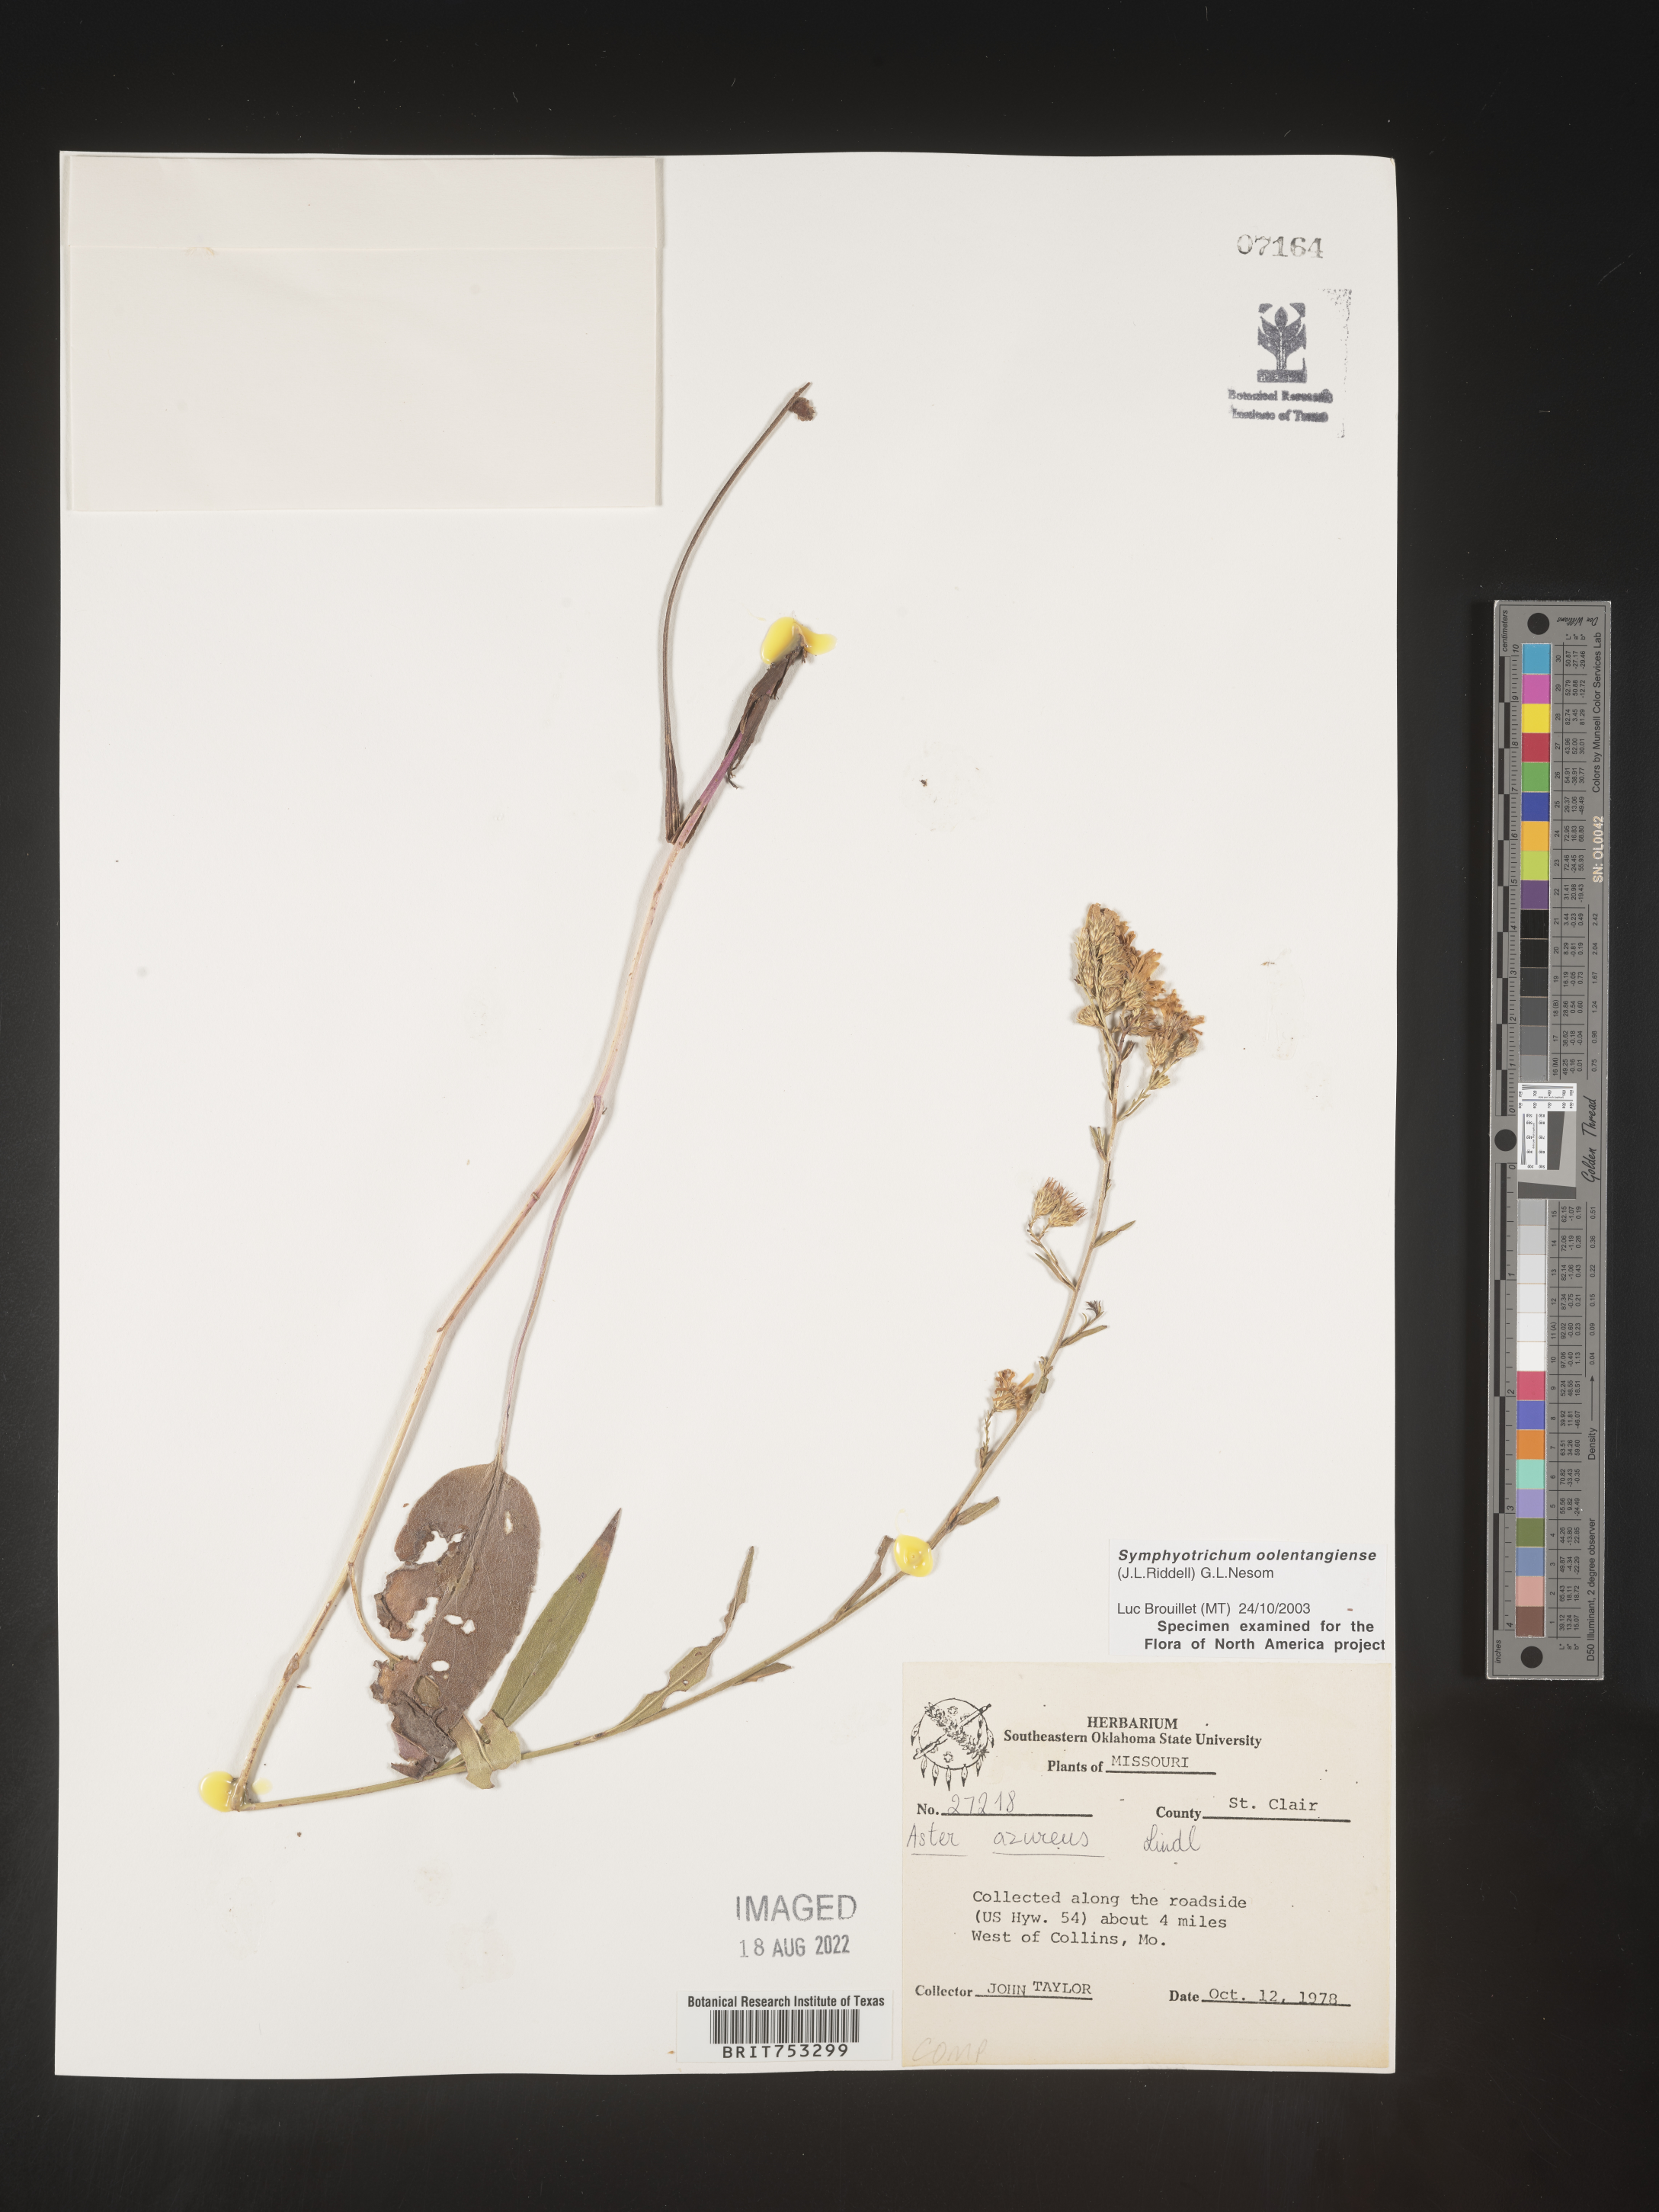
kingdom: Plantae
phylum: Tracheophyta
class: Magnoliopsida
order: Asterales
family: Asteraceae
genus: Symphyotrichum
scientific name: Symphyotrichum oolentangiense
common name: Azure aster
